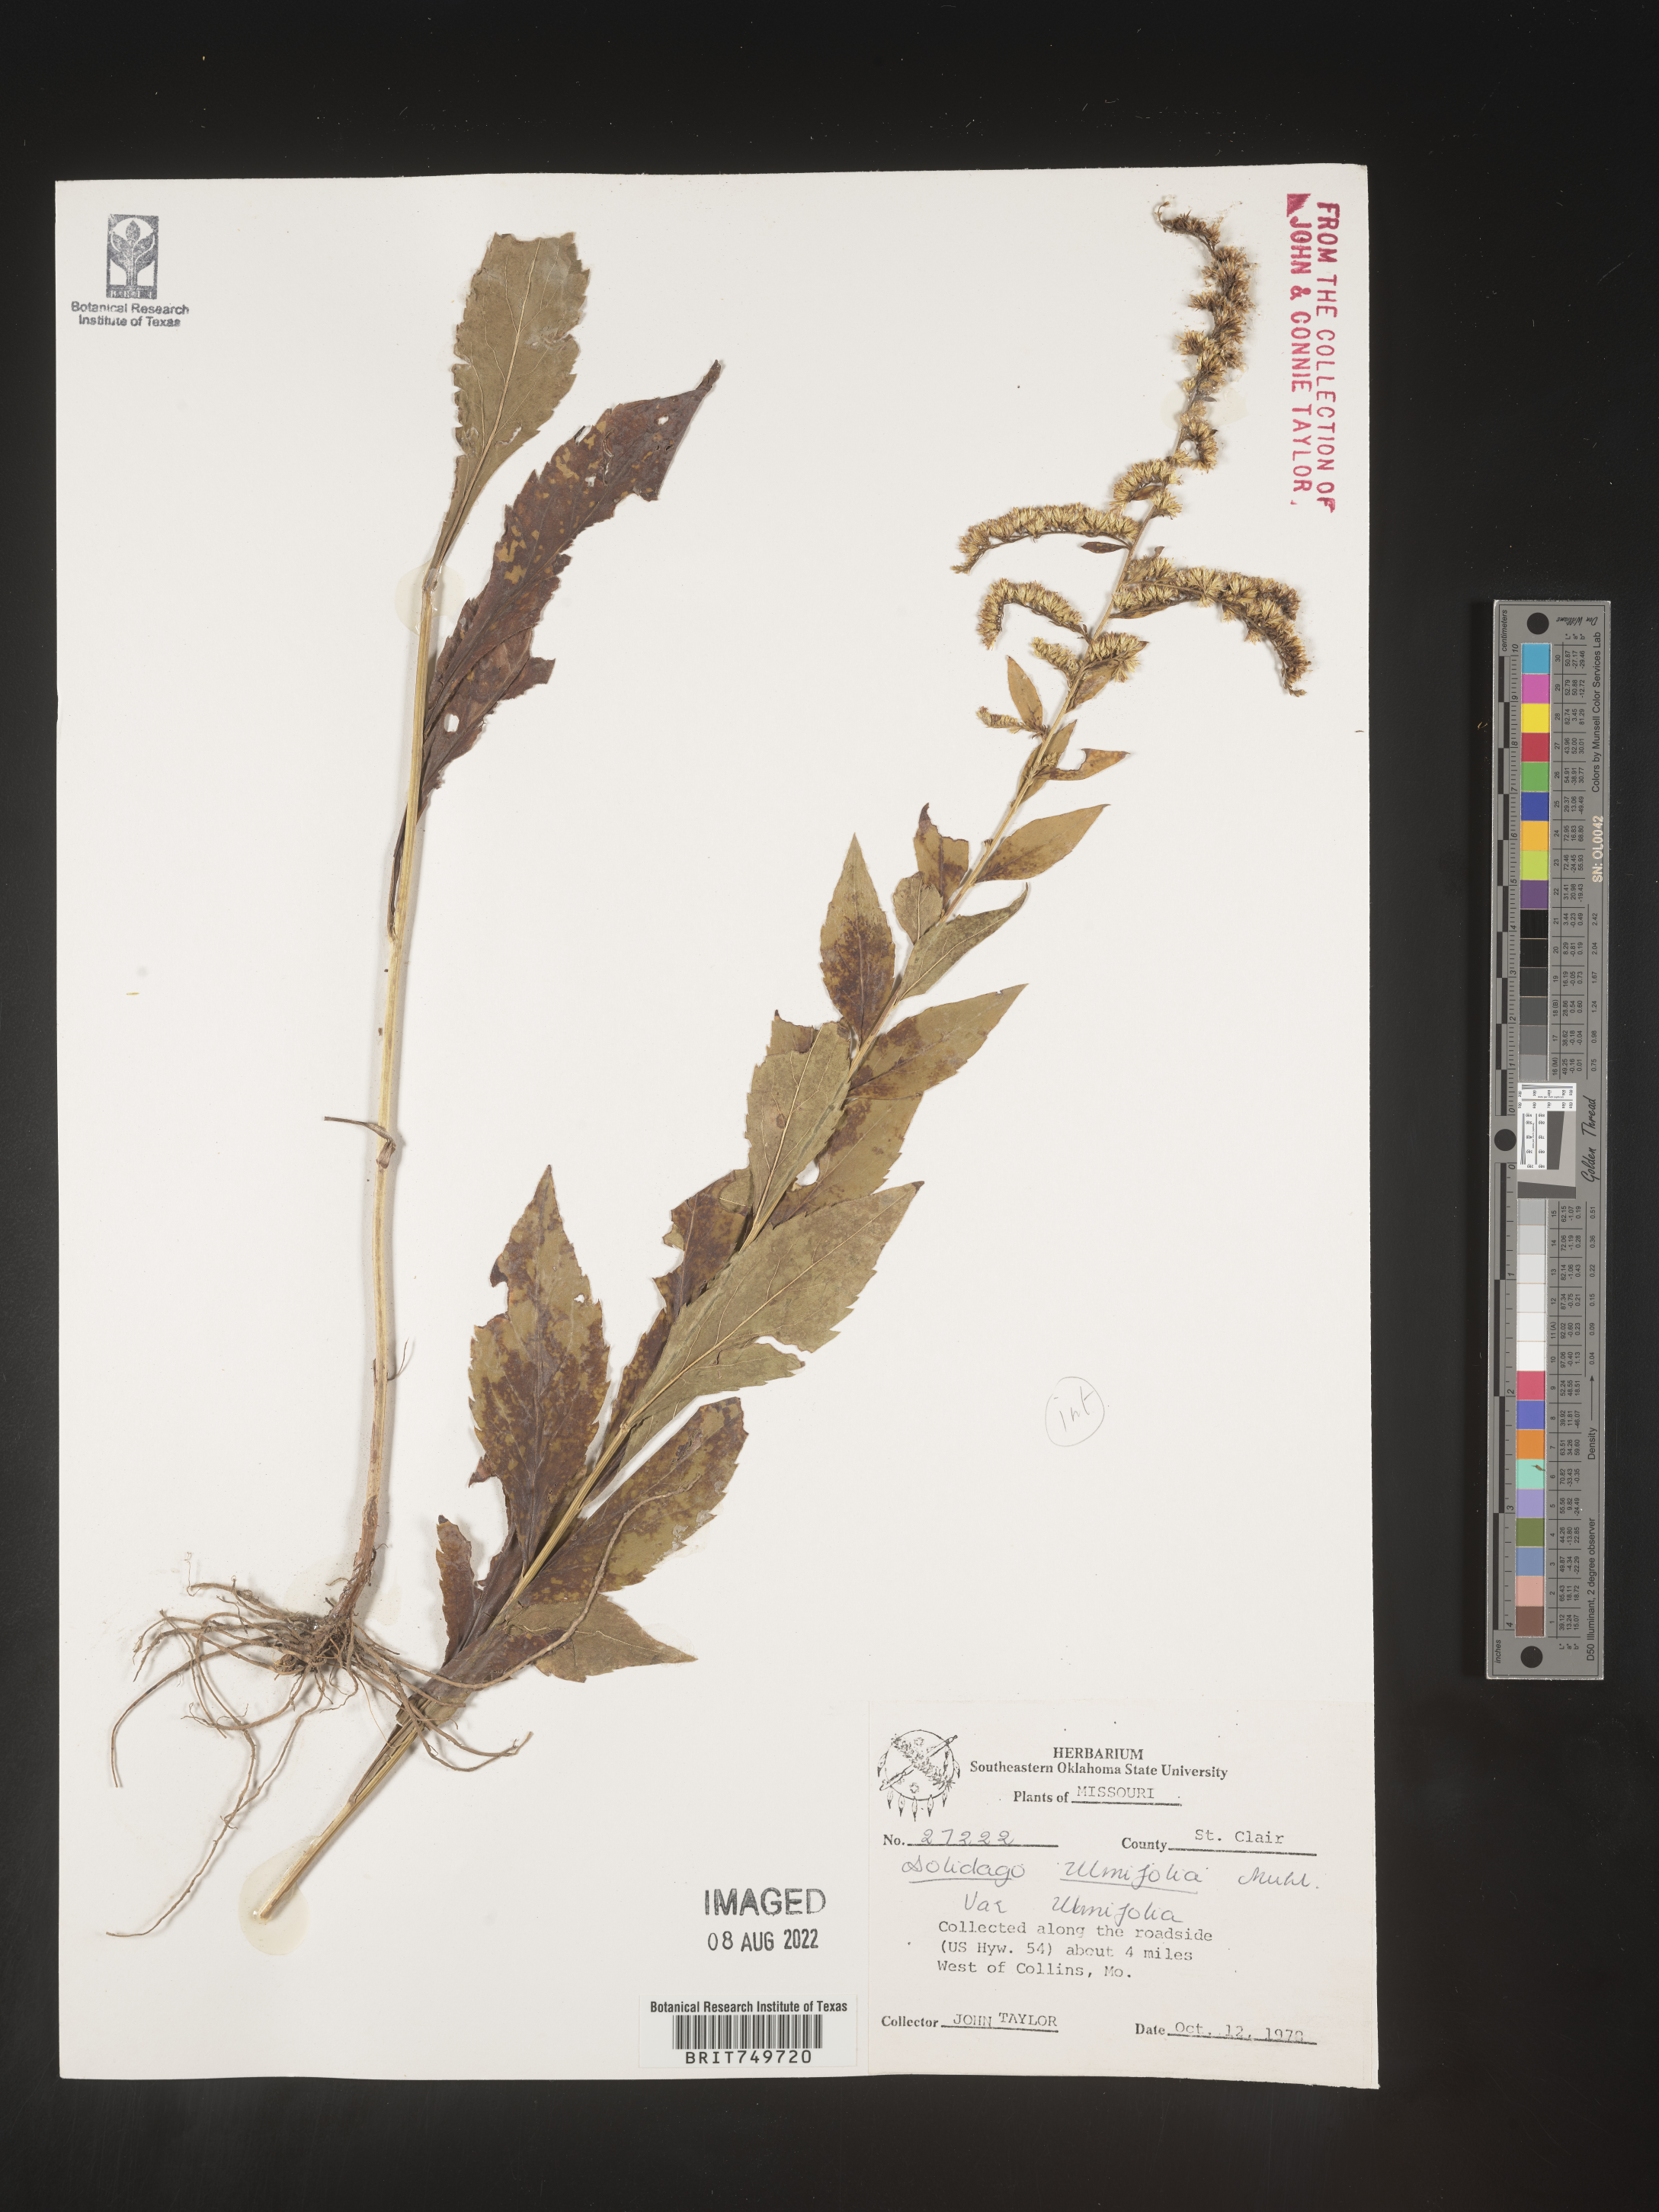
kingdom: Plantae
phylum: Tracheophyta
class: Magnoliopsida
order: Asterales
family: Asteraceae
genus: Solidago
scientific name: Solidago ulmifolia
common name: Elm-leaf goldenrod
